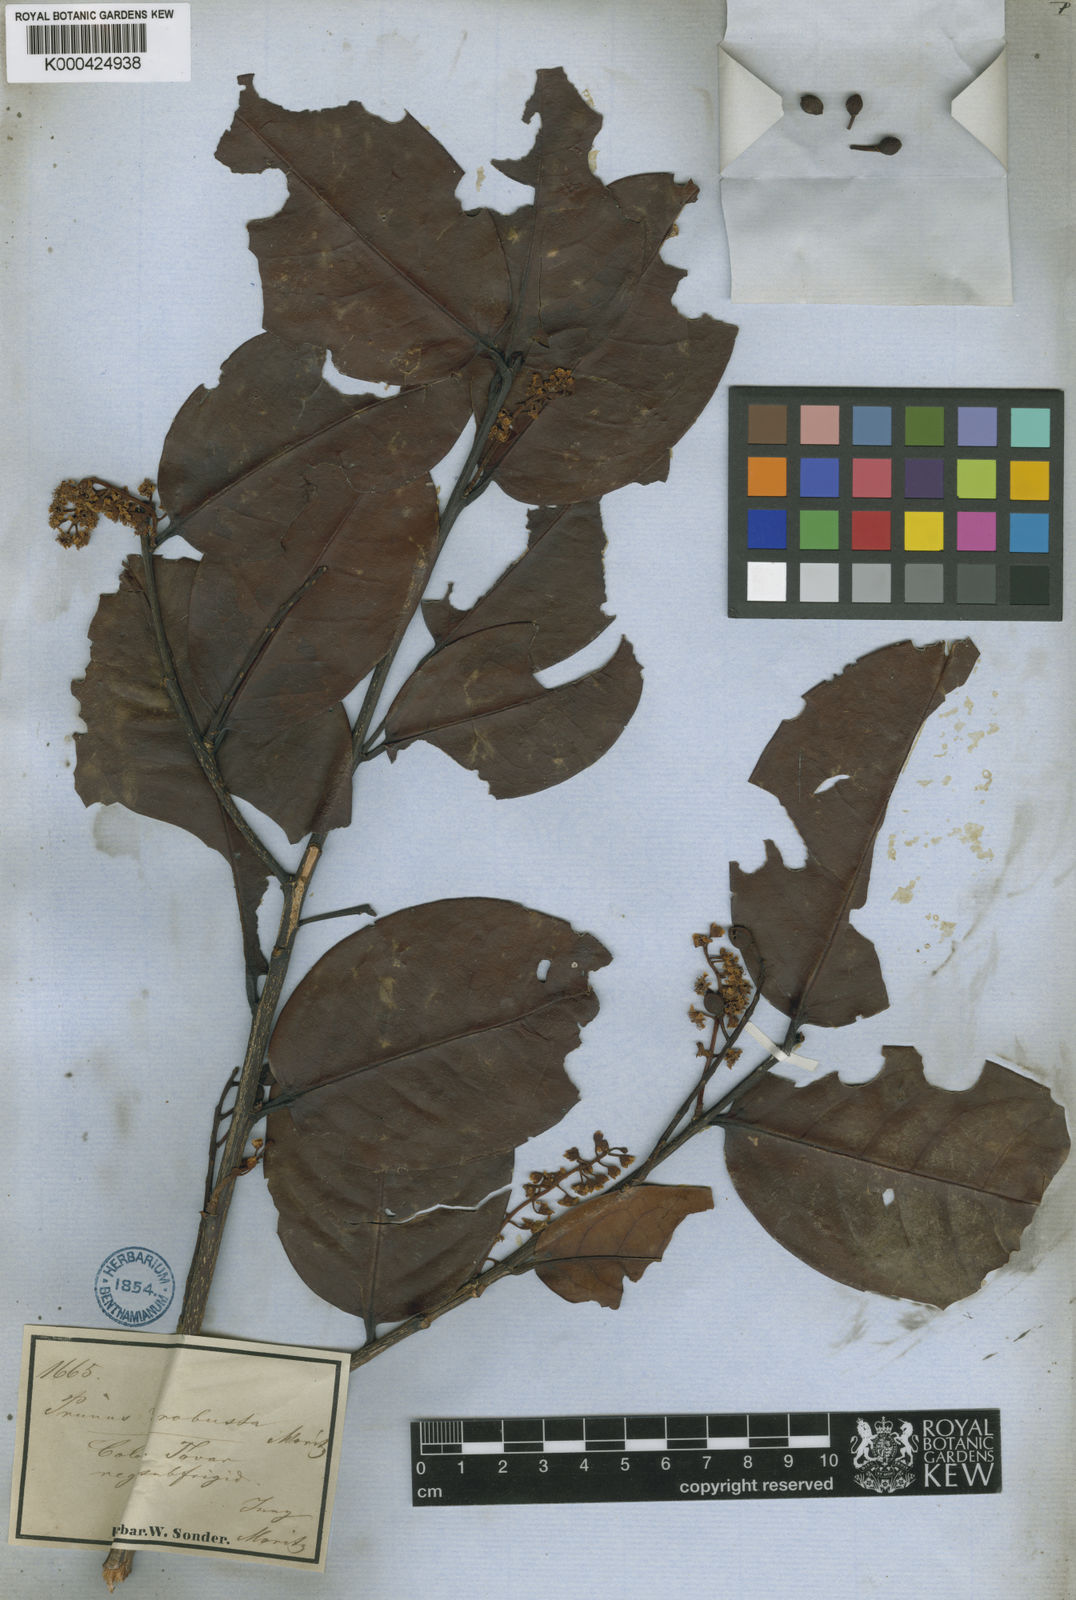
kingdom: Plantae
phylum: Tracheophyta
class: Magnoliopsida
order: Rosales
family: Rosaceae
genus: Prunus
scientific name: Prunus moritziana
